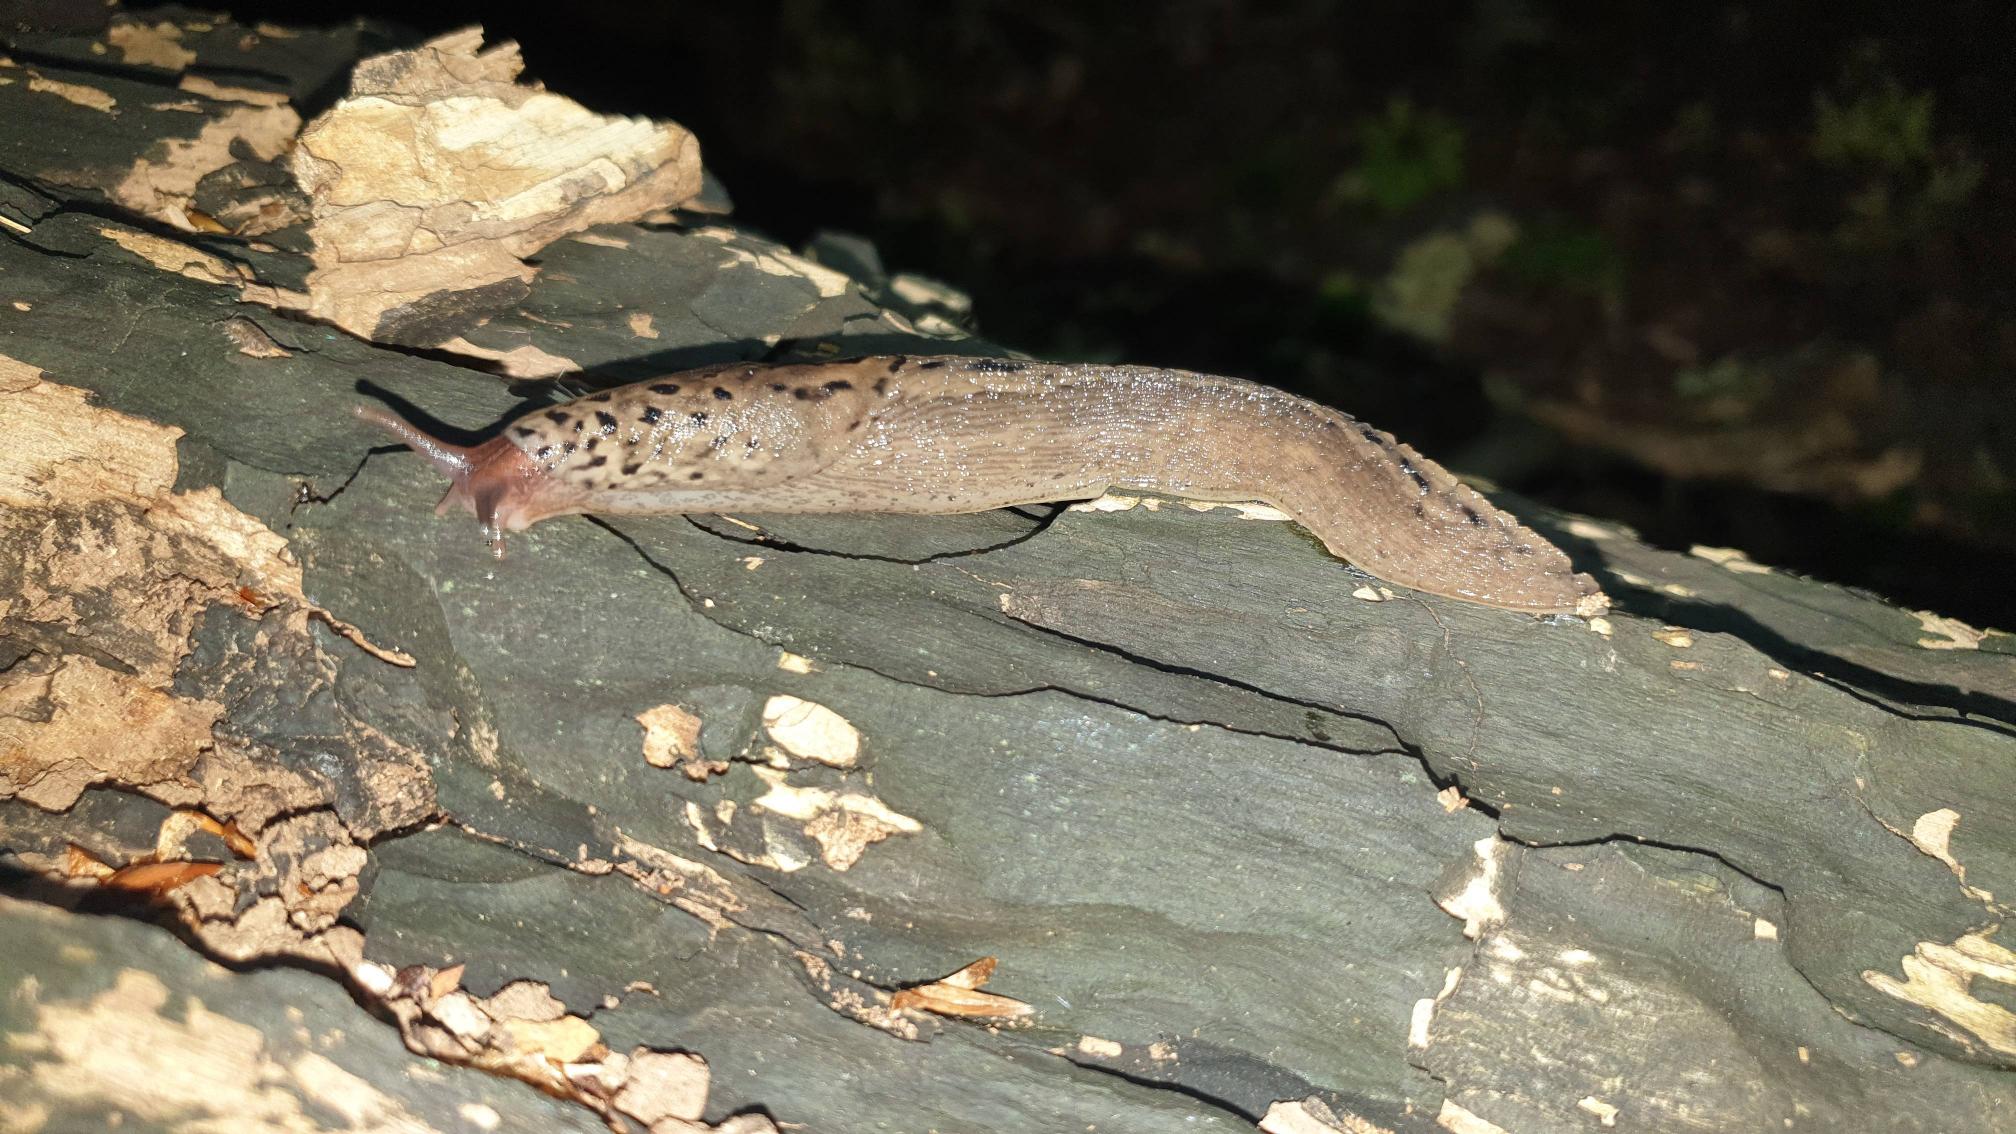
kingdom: Animalia
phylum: Mollusca
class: Gastropoda
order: Stylommatophora
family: Limacidae
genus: Limax
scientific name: Limax maximus
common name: Pantersnegl
